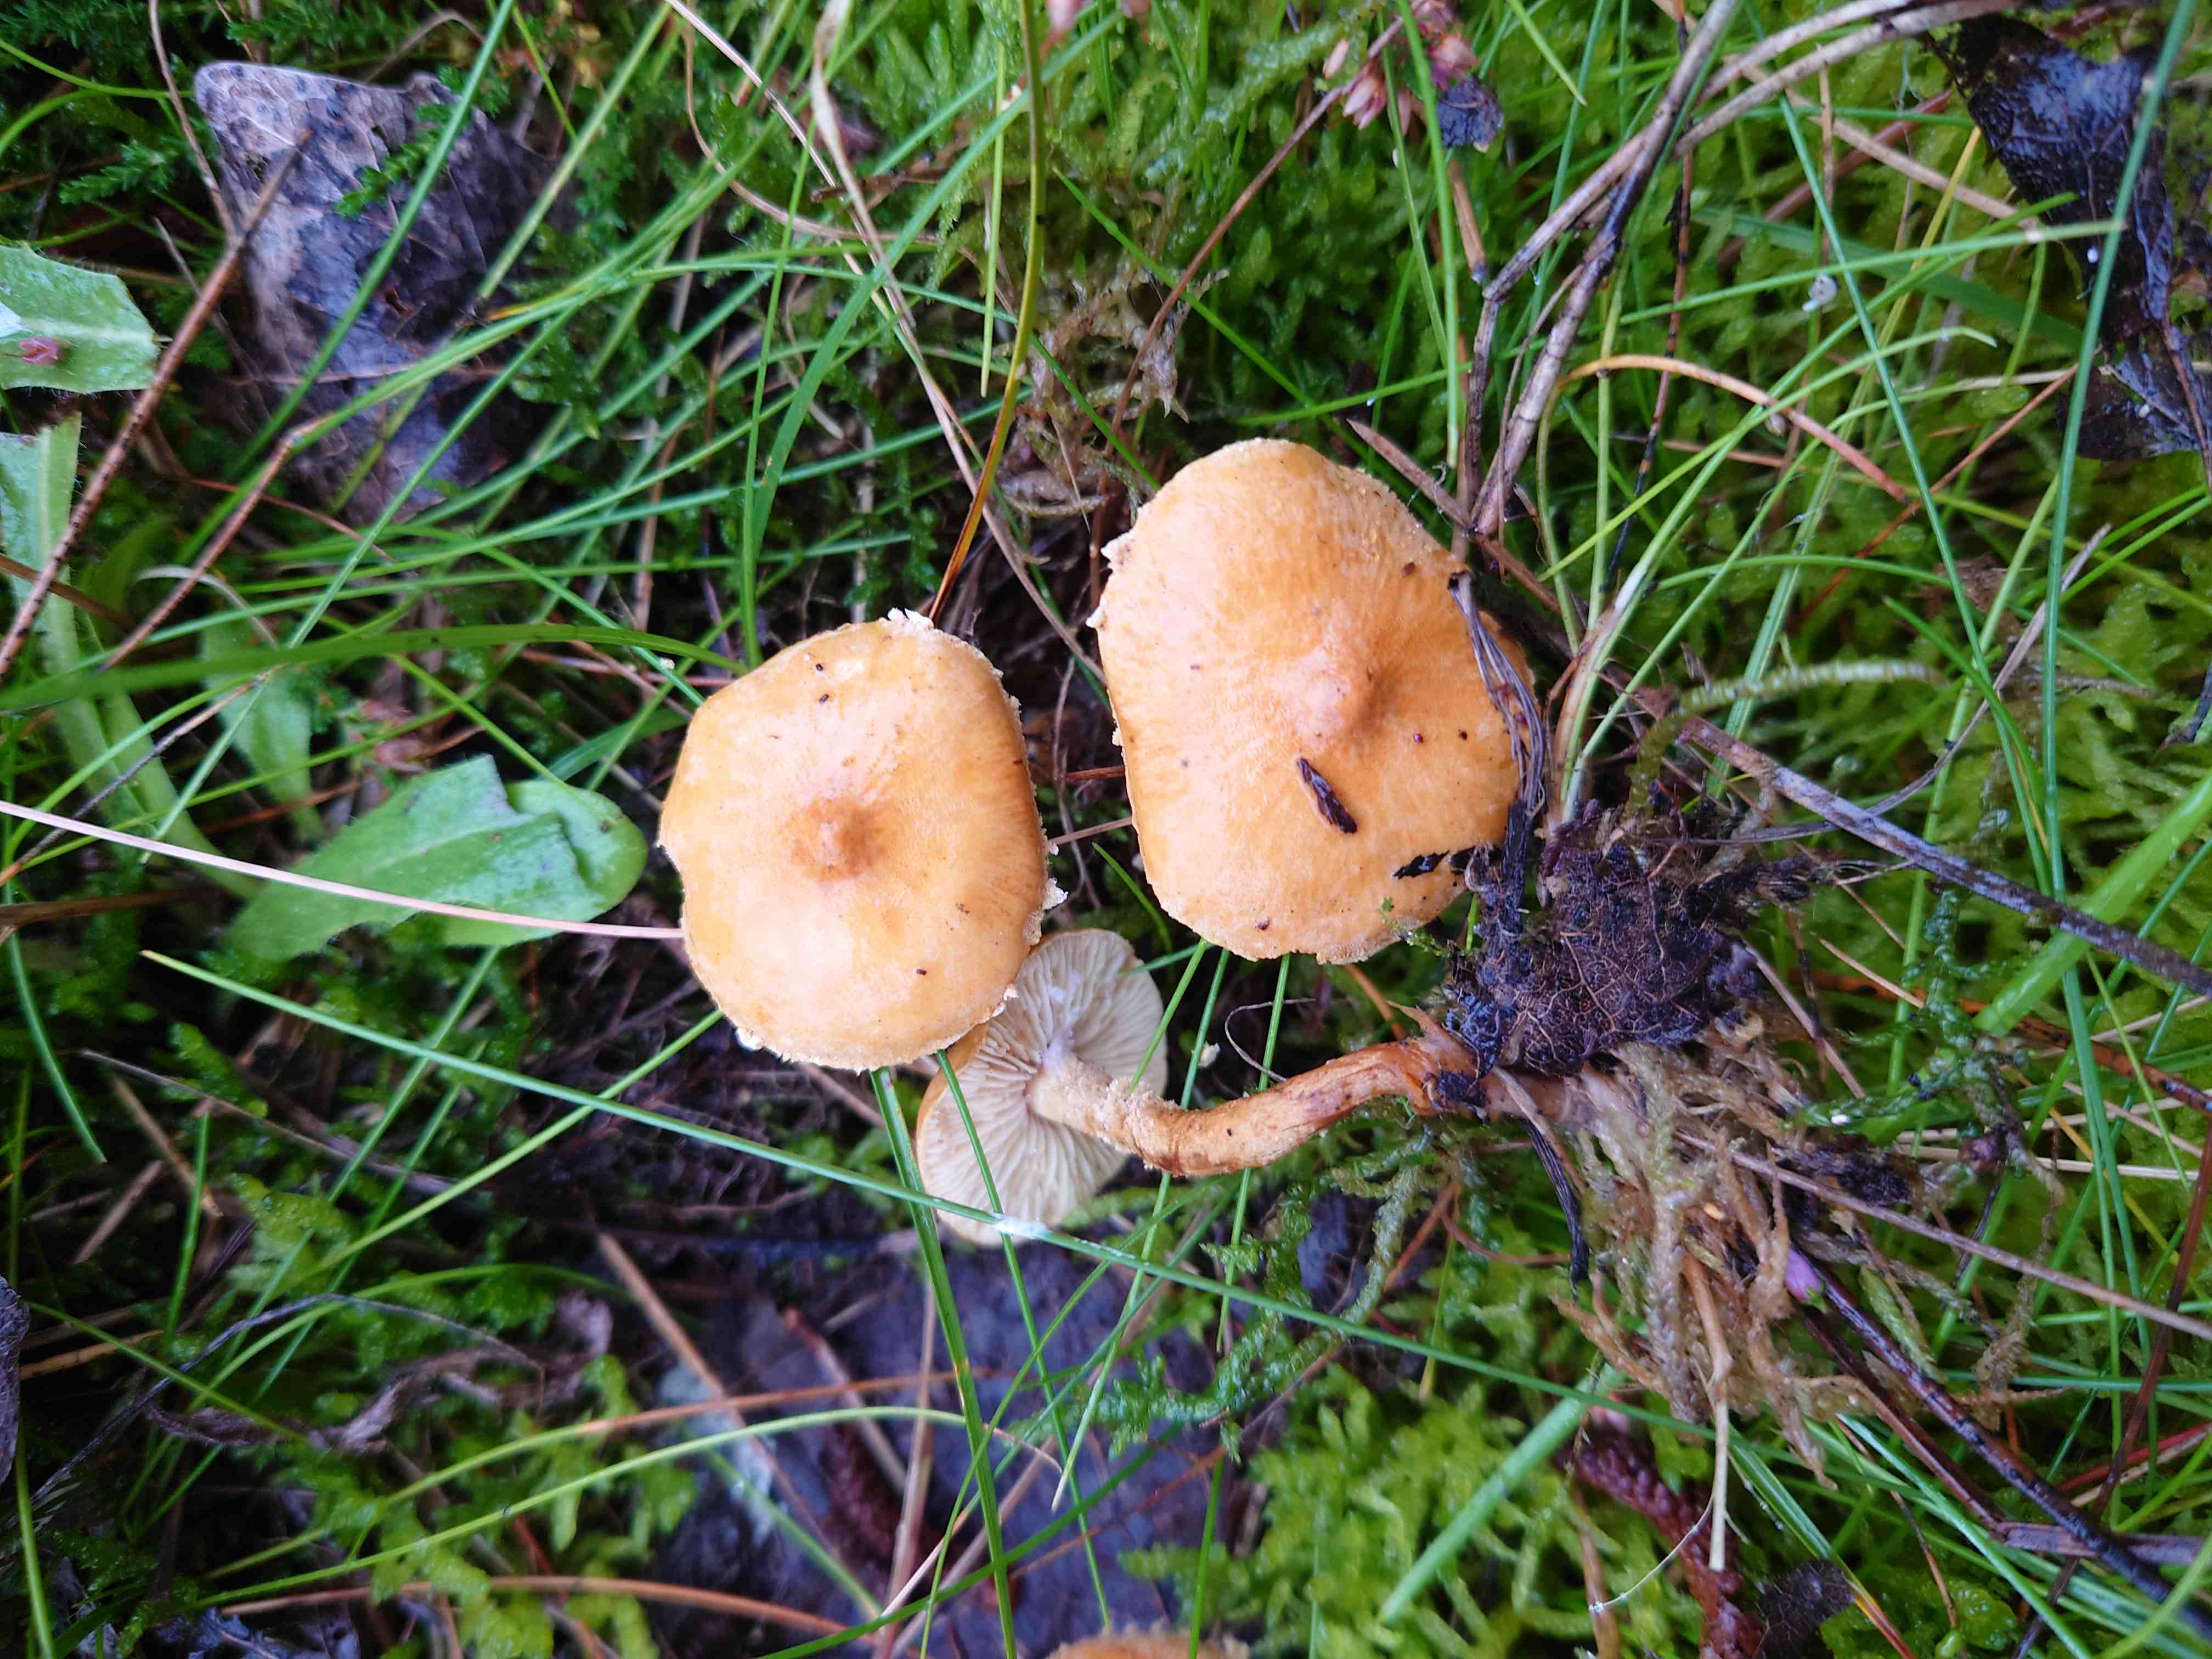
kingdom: Fungi
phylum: Basidiomycota
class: Agaricomycetes
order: Agaricales
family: Tricholomataceae
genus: Cystoderma
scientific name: Cystoderma amianthinum
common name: okkergul grynhat
